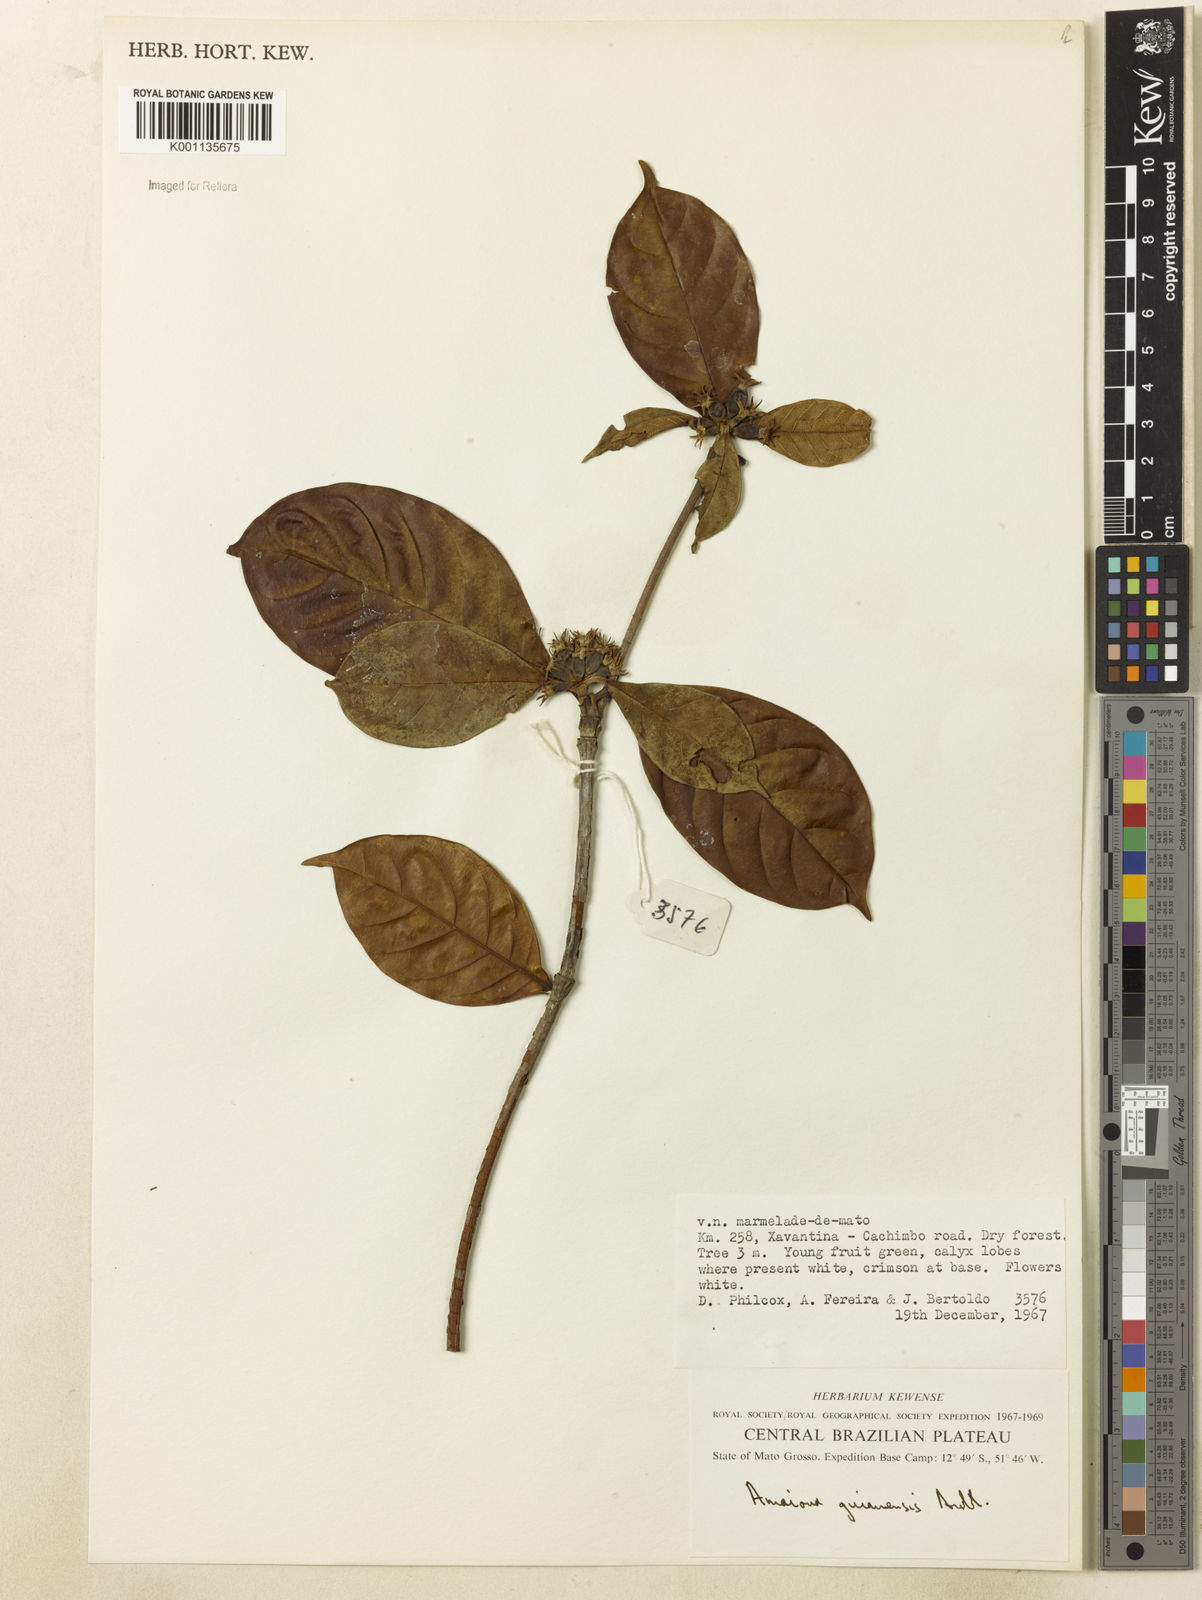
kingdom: Plantae
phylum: Tracheophyta
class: Magnoliopsida
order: Gentianales
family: Rubiaceae
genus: Amaioua
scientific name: Amaioua guianensis
